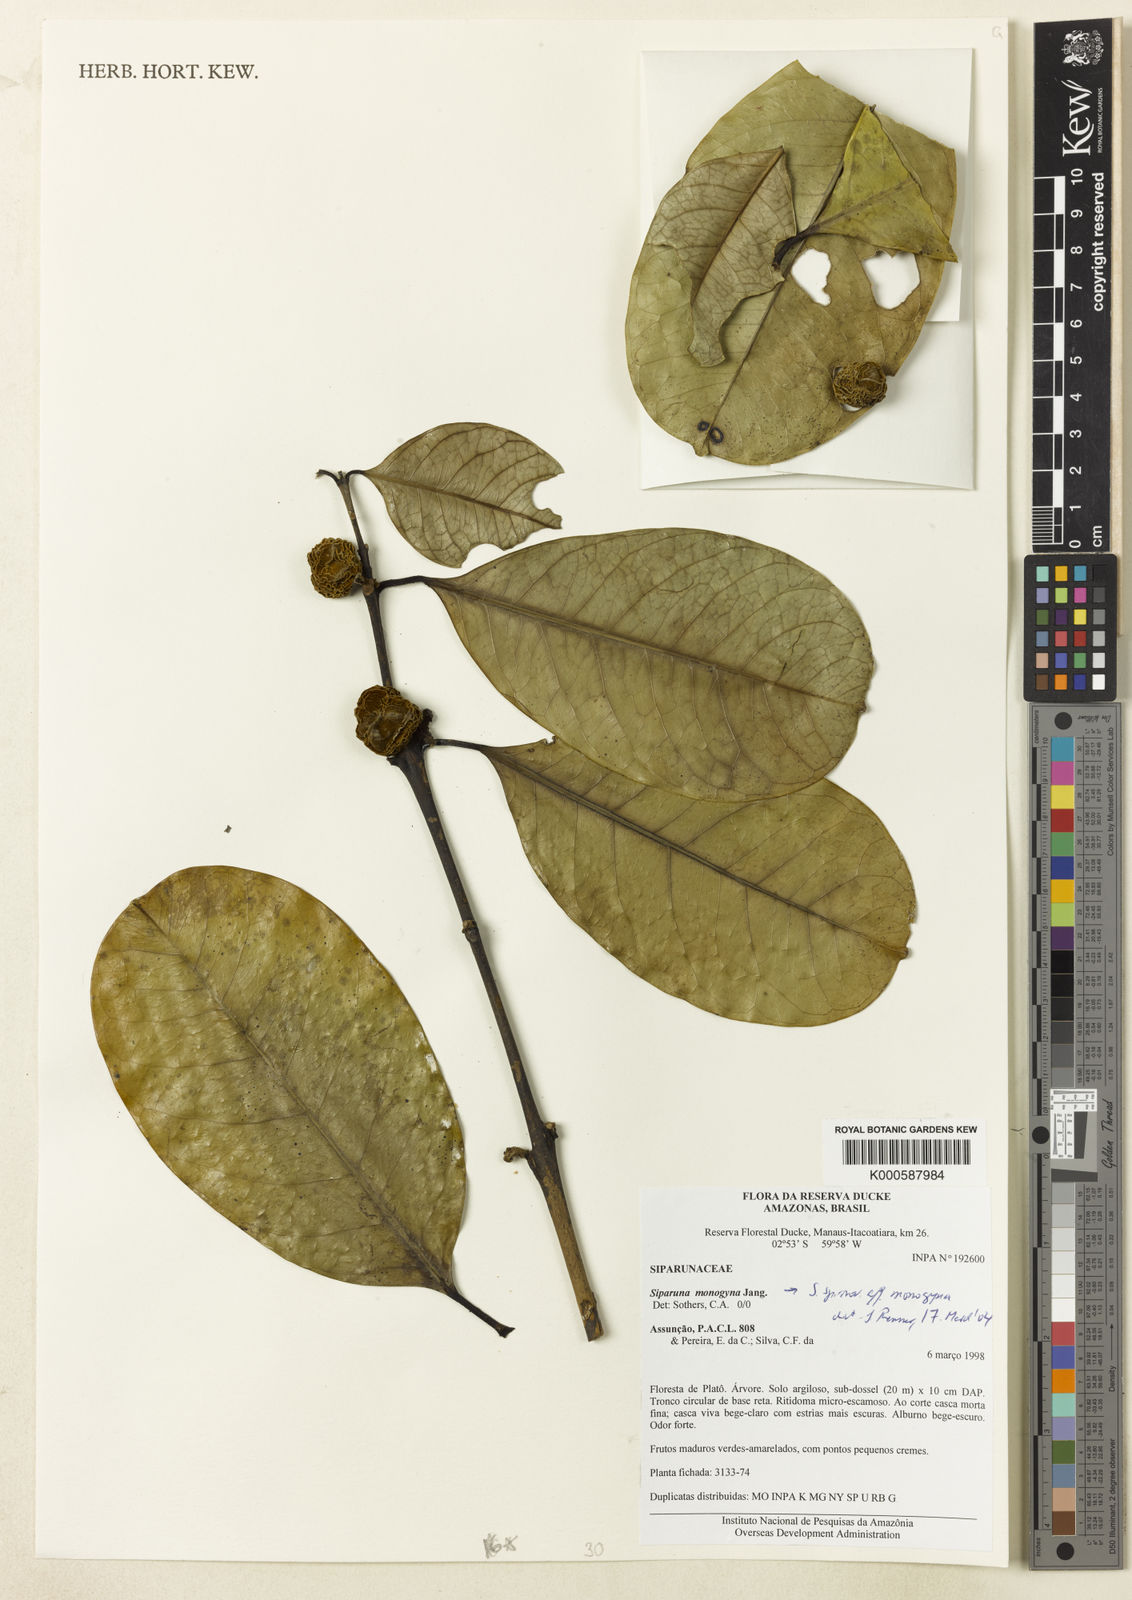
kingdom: Plantae
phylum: Tracheophyta
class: Magnoliopsida
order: Laurales
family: Siparunaceae
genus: Siparuna
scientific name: Siparuna cristata
